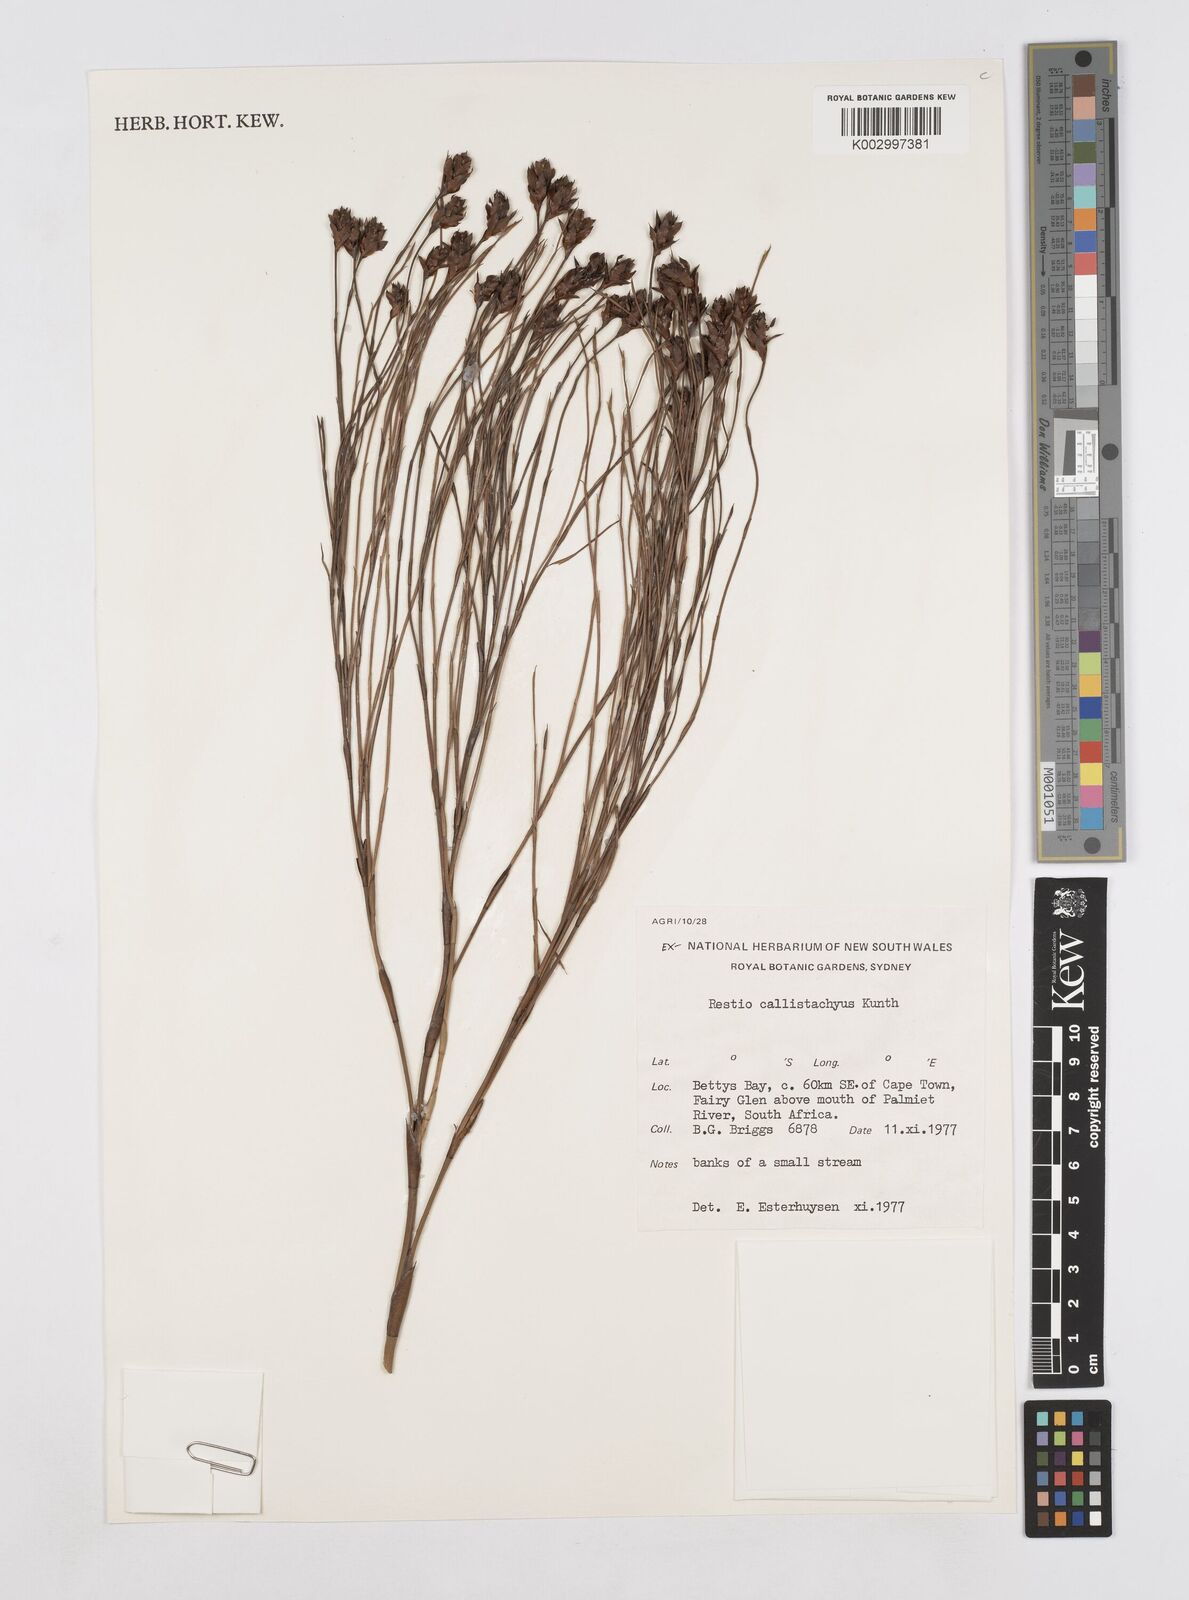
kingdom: Plantae
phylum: Tracheophyta
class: Liliopsida
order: Poales
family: Restionaceae
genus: Platycaulos
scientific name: Platycaulos callistachyus
